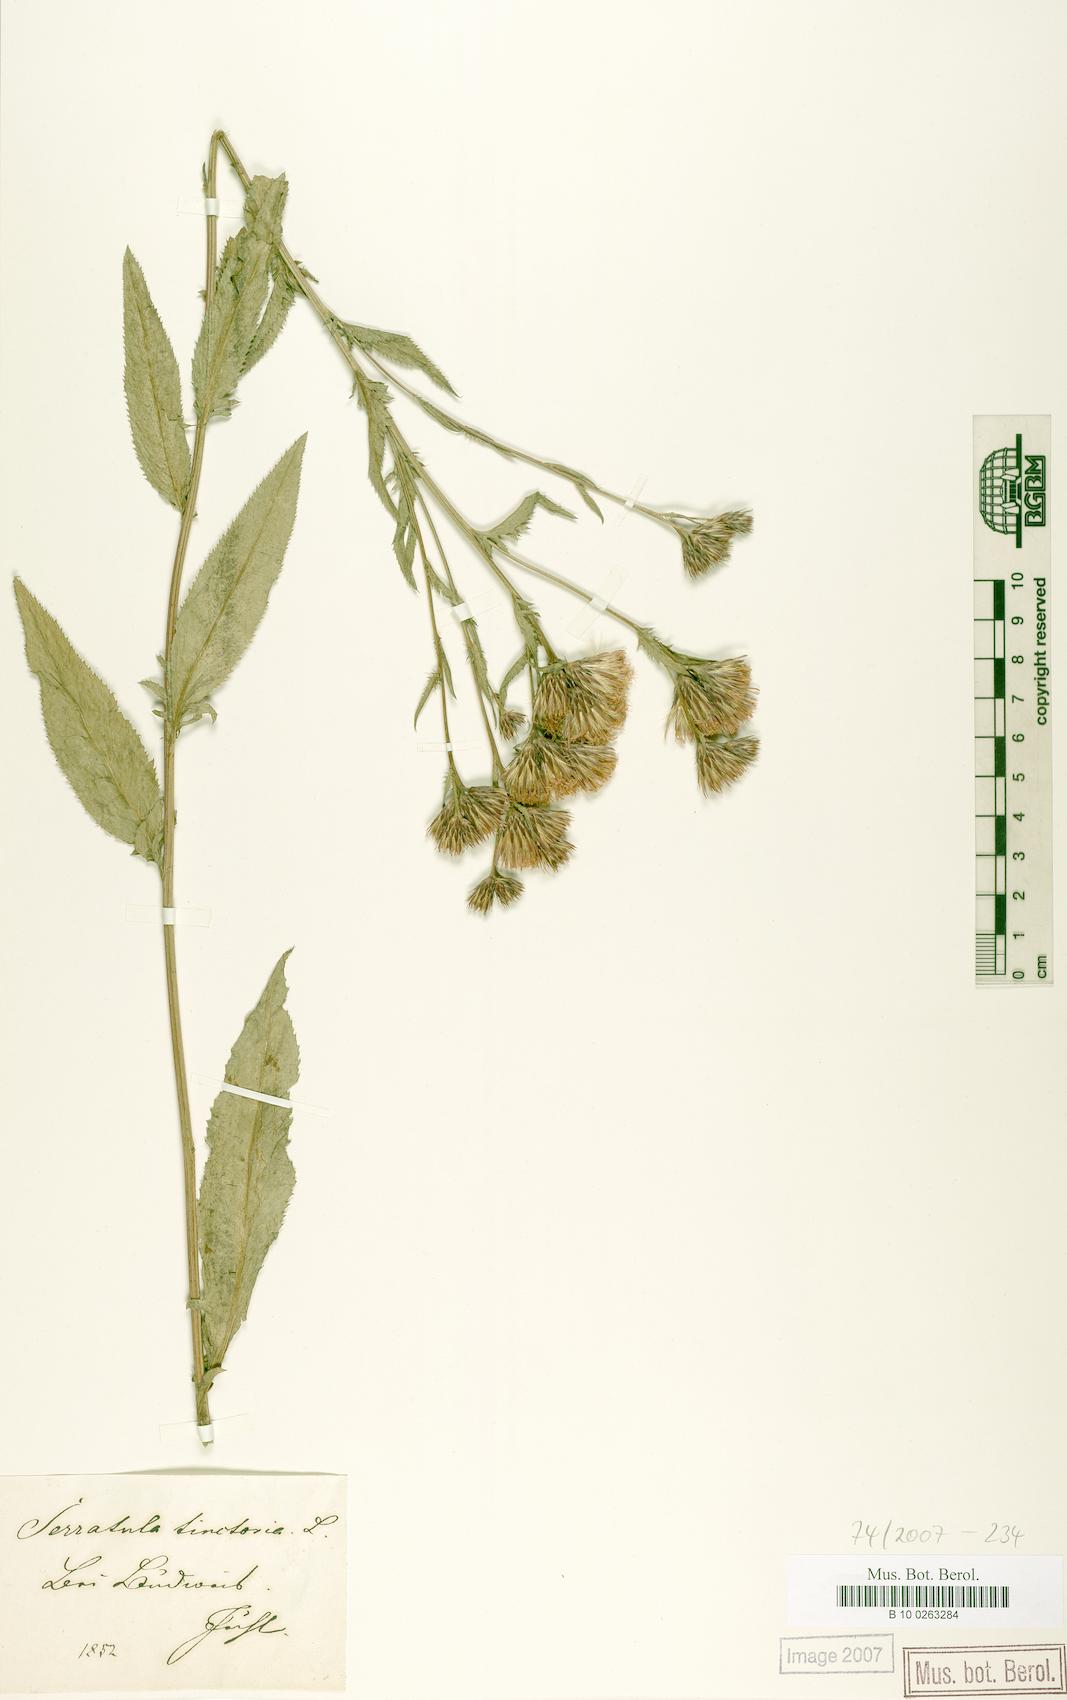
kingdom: Plantae
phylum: Tracheophyta
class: Magnoliopsida
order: Asterales
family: Asteraceae
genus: Serratula
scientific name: Serratula tinctoria
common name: Saw-wort
